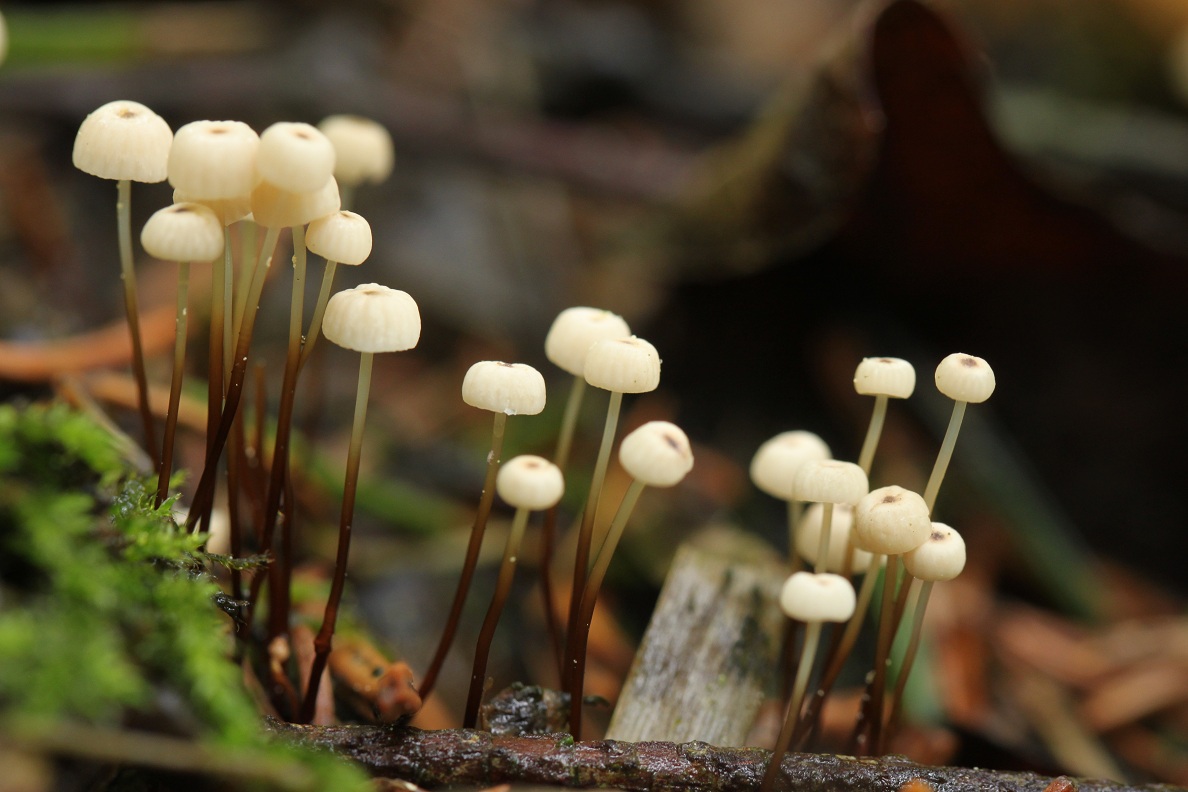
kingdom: Fungi
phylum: Basidiomycota
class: Agaricomycetes
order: Agaricales
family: Marasmiaceae
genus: Marasmius
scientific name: Marasmius wettsteinii
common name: Wettsteins bruskhat
